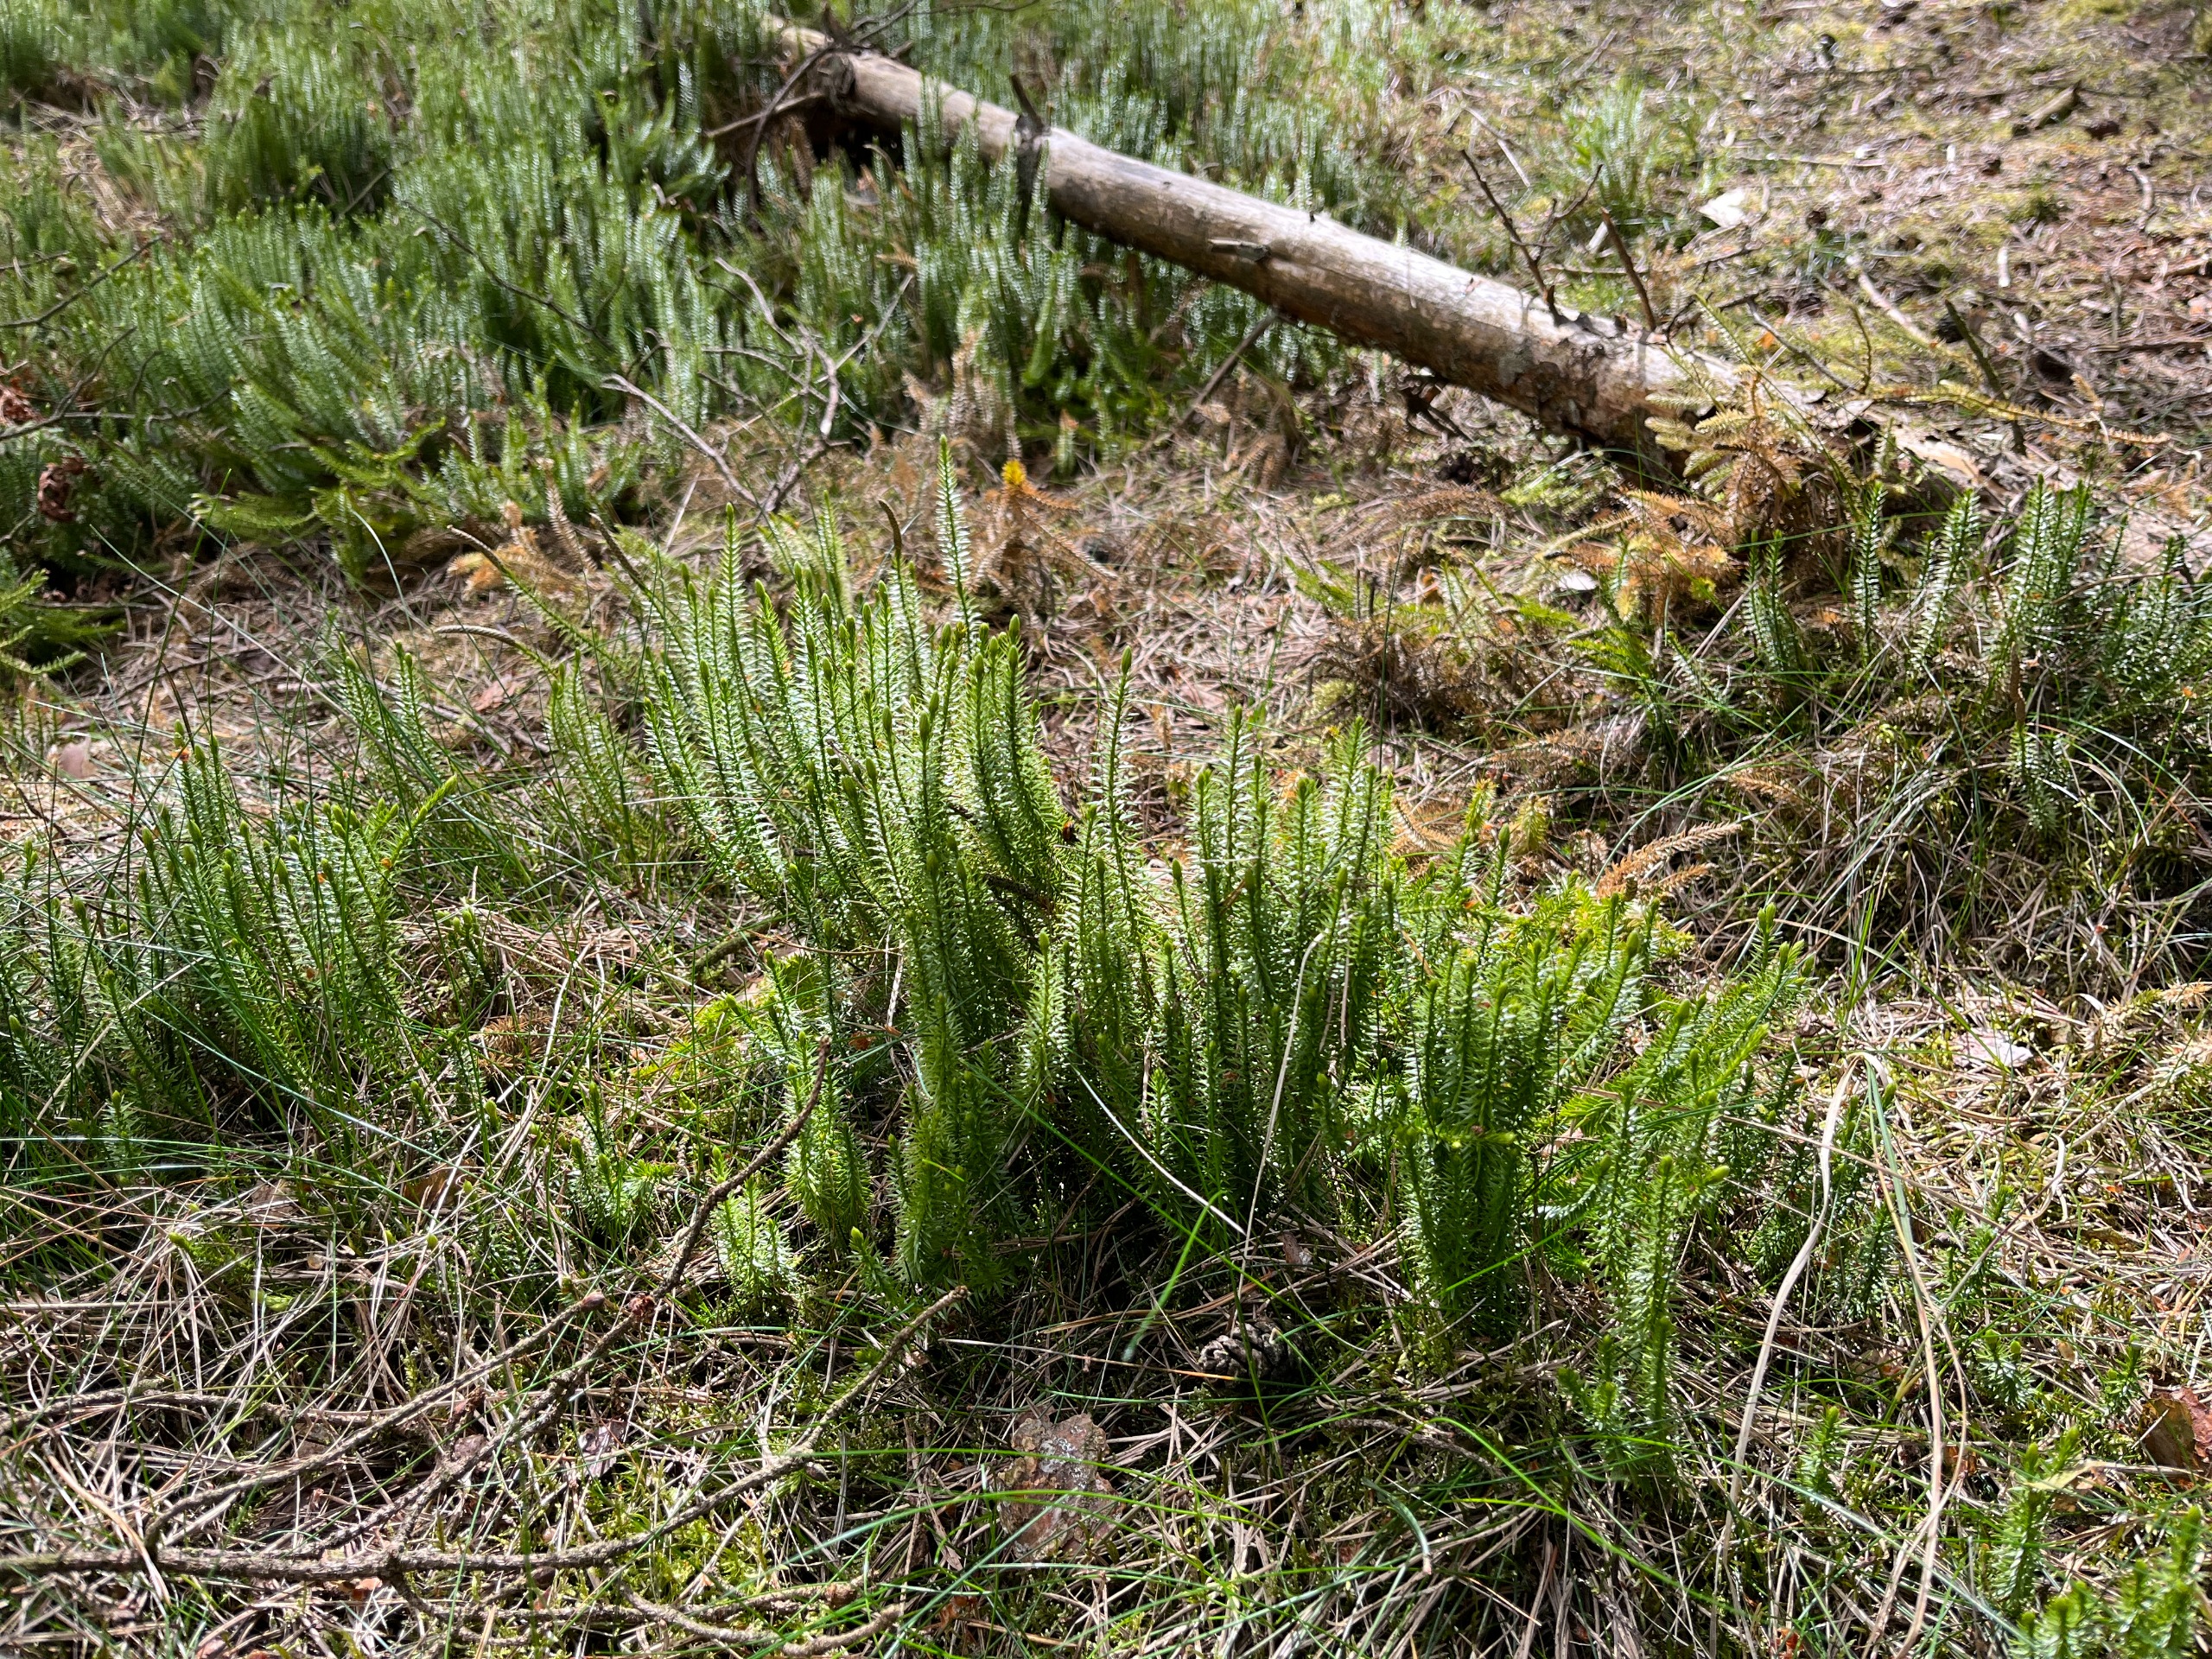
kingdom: Plantae
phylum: Tracheophyta
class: Lycopodiopsida
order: Lycopodiales
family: Lycopodiaceae
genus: Spinulum
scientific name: Spinulum annotinum
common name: Femradet ulvefod
